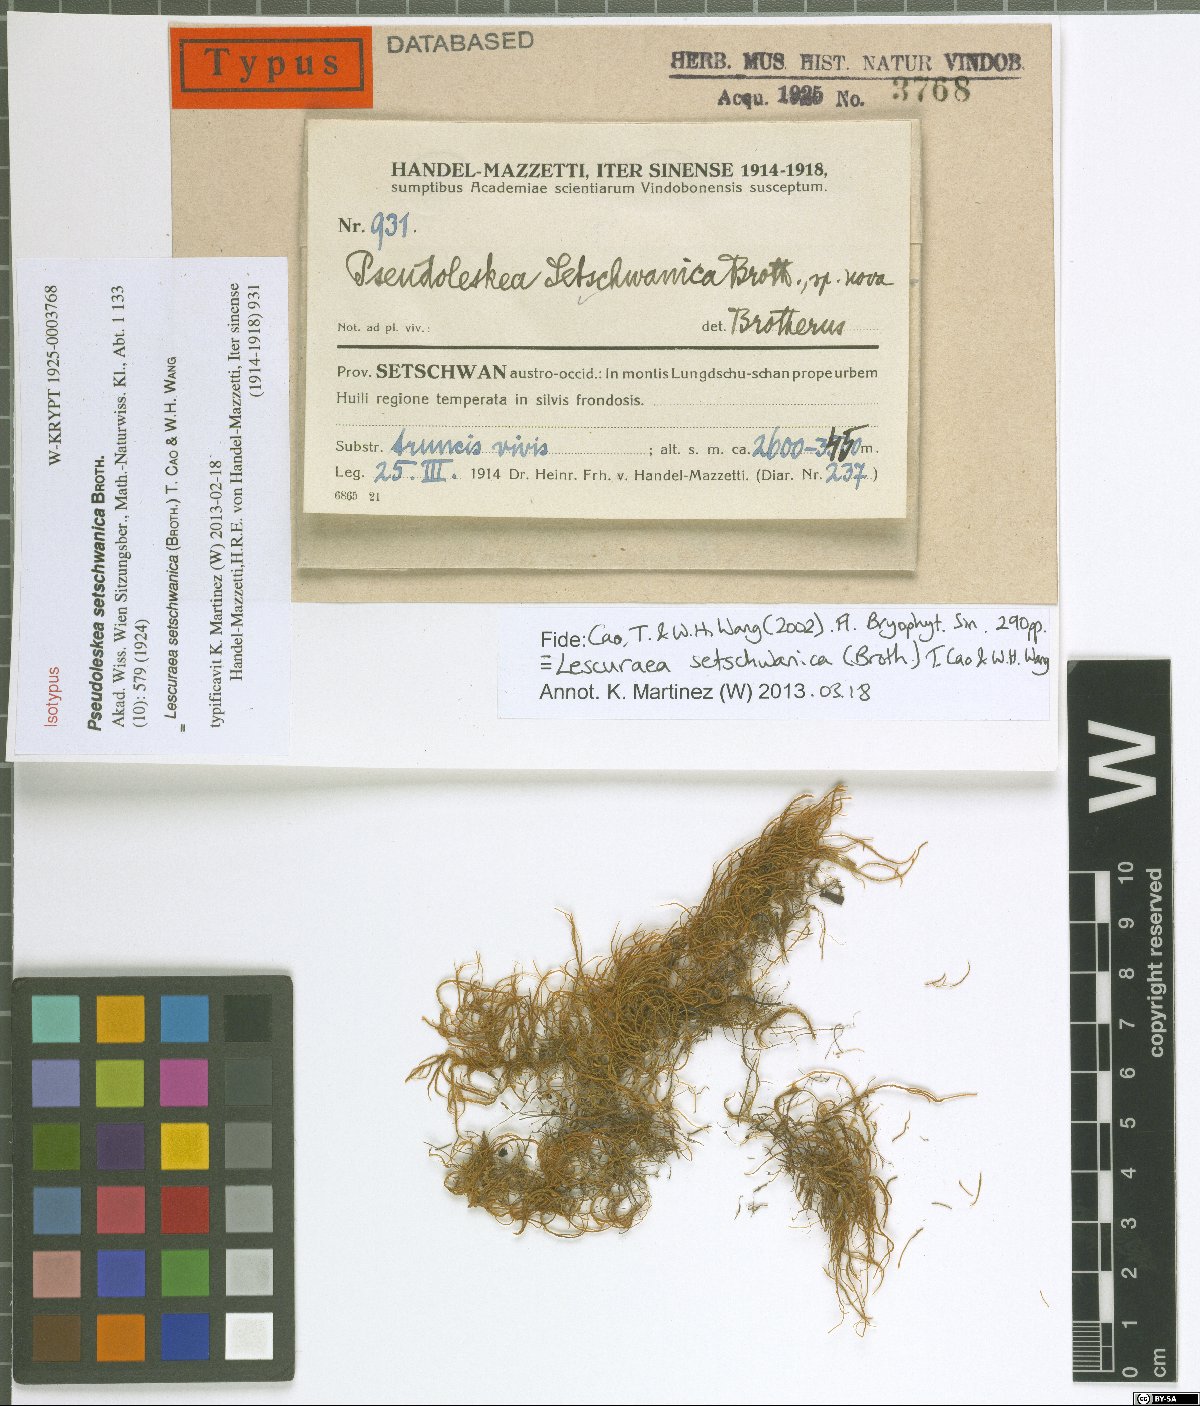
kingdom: Plantae
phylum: Bryophyta
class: Bryopsida
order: Hypnales
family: Pseudoleskeaceae
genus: Lescuraea
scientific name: Lescuraea setschwanica
